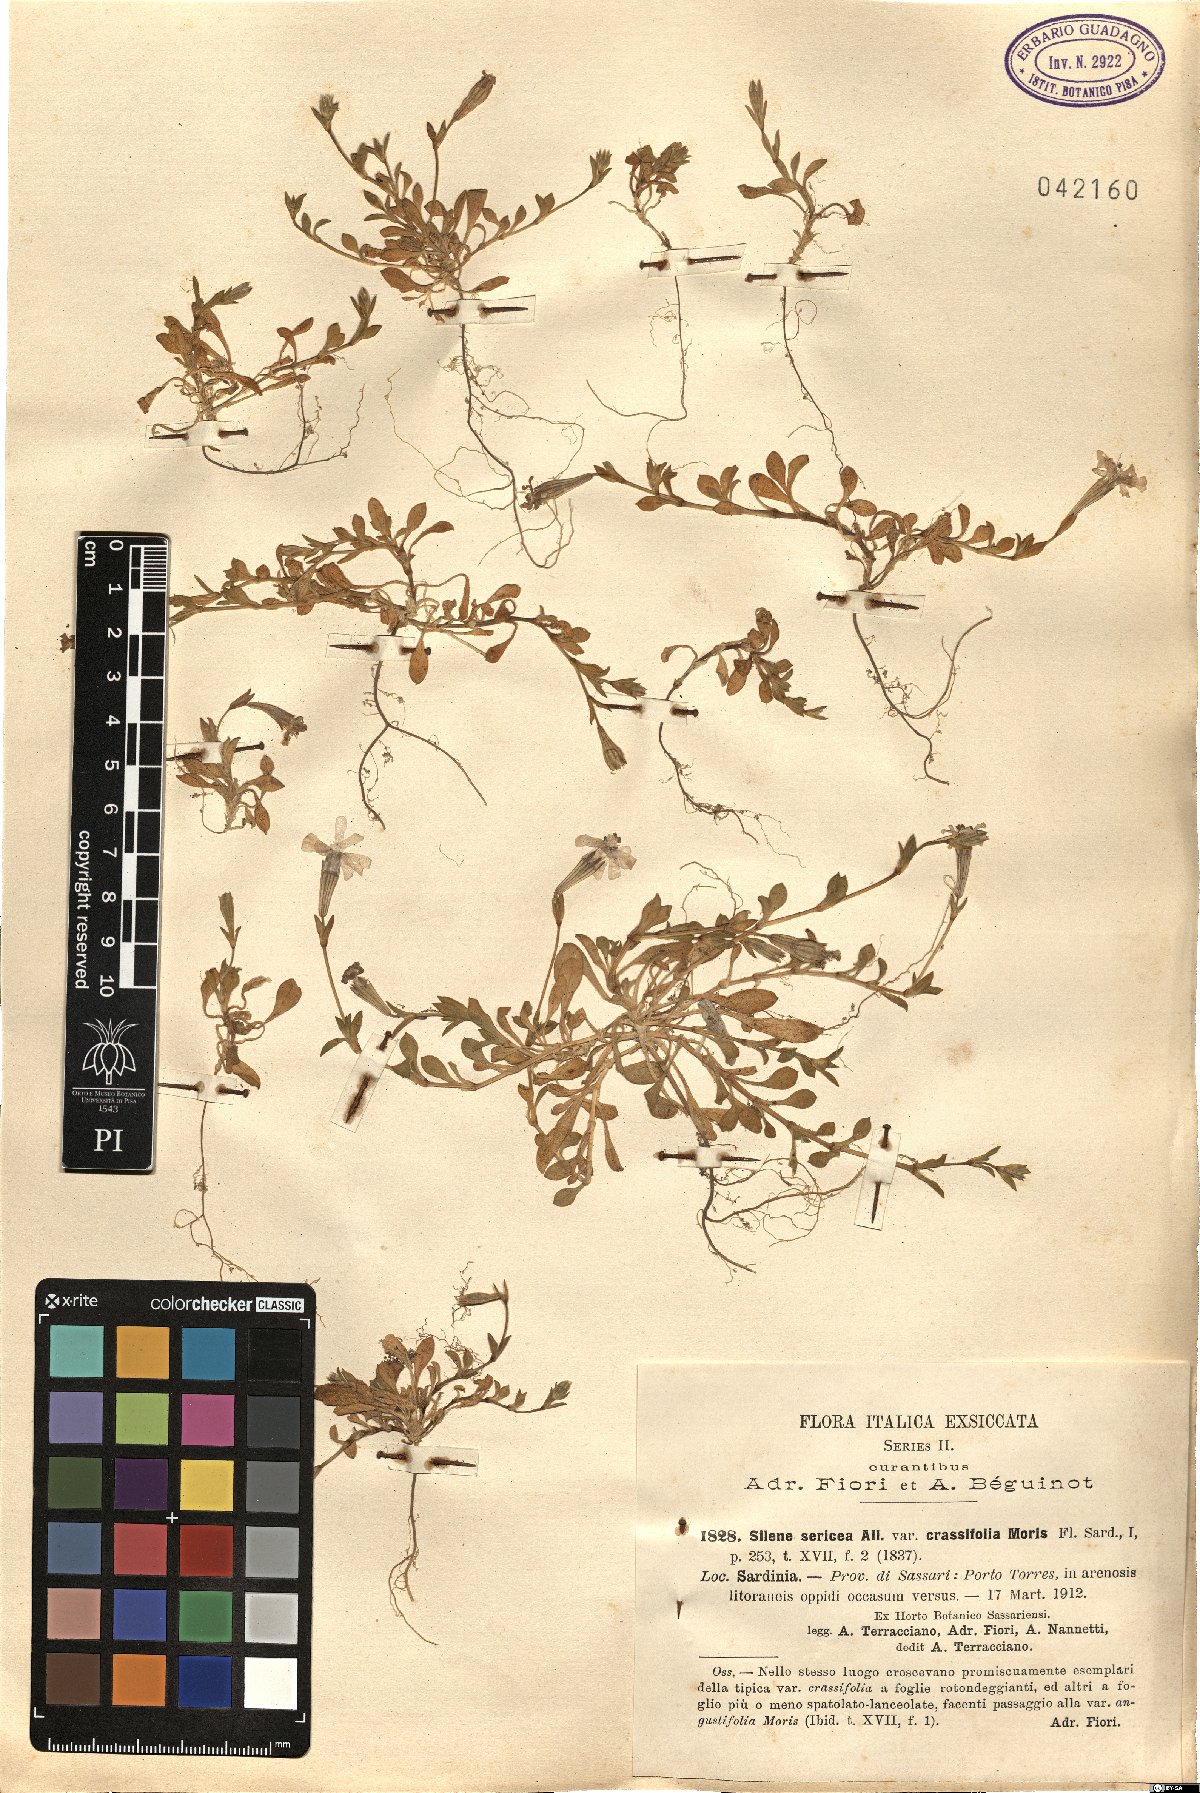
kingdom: Plantae
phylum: Tracheophyta
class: Magnoliopsida
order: Caryophyllales
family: Caryophyllaceae
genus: Silene
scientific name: Silene colorata
